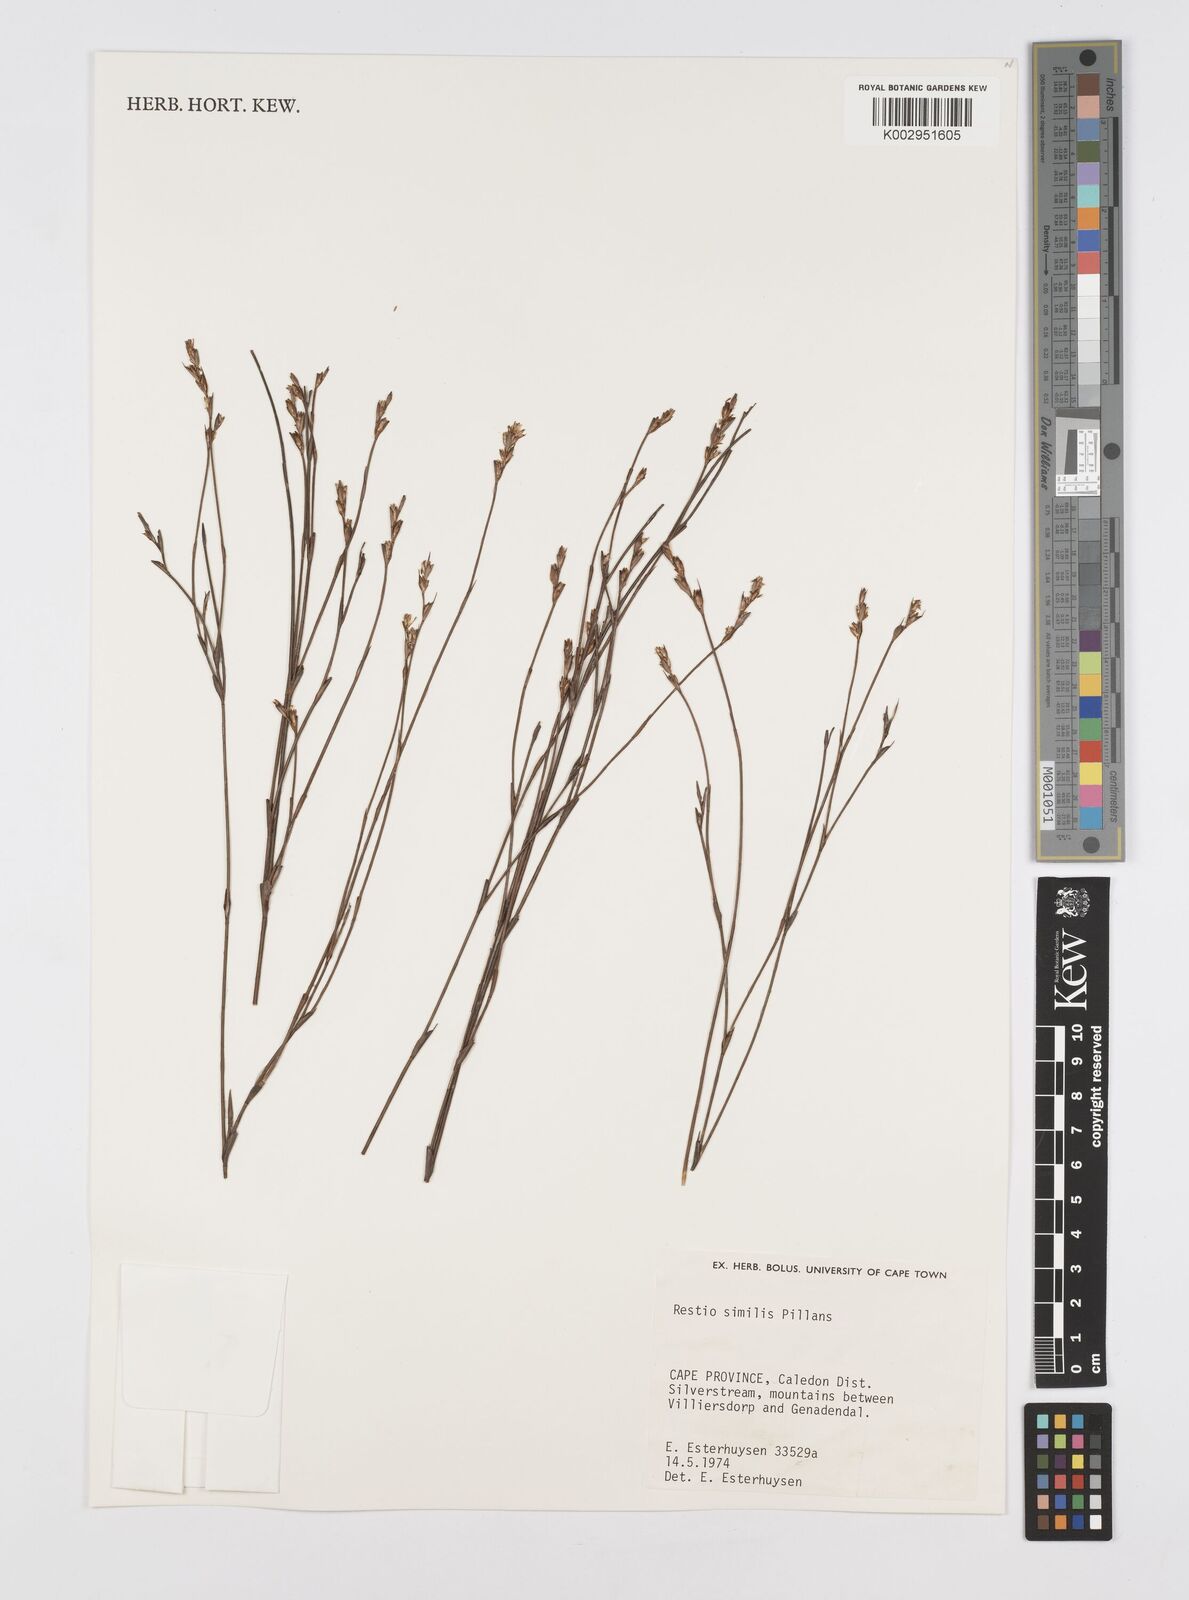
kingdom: Plantae
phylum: Tracheophyta
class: Liliopsida
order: Poales
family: Restionaceae
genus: Restio
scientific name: Restio similis
